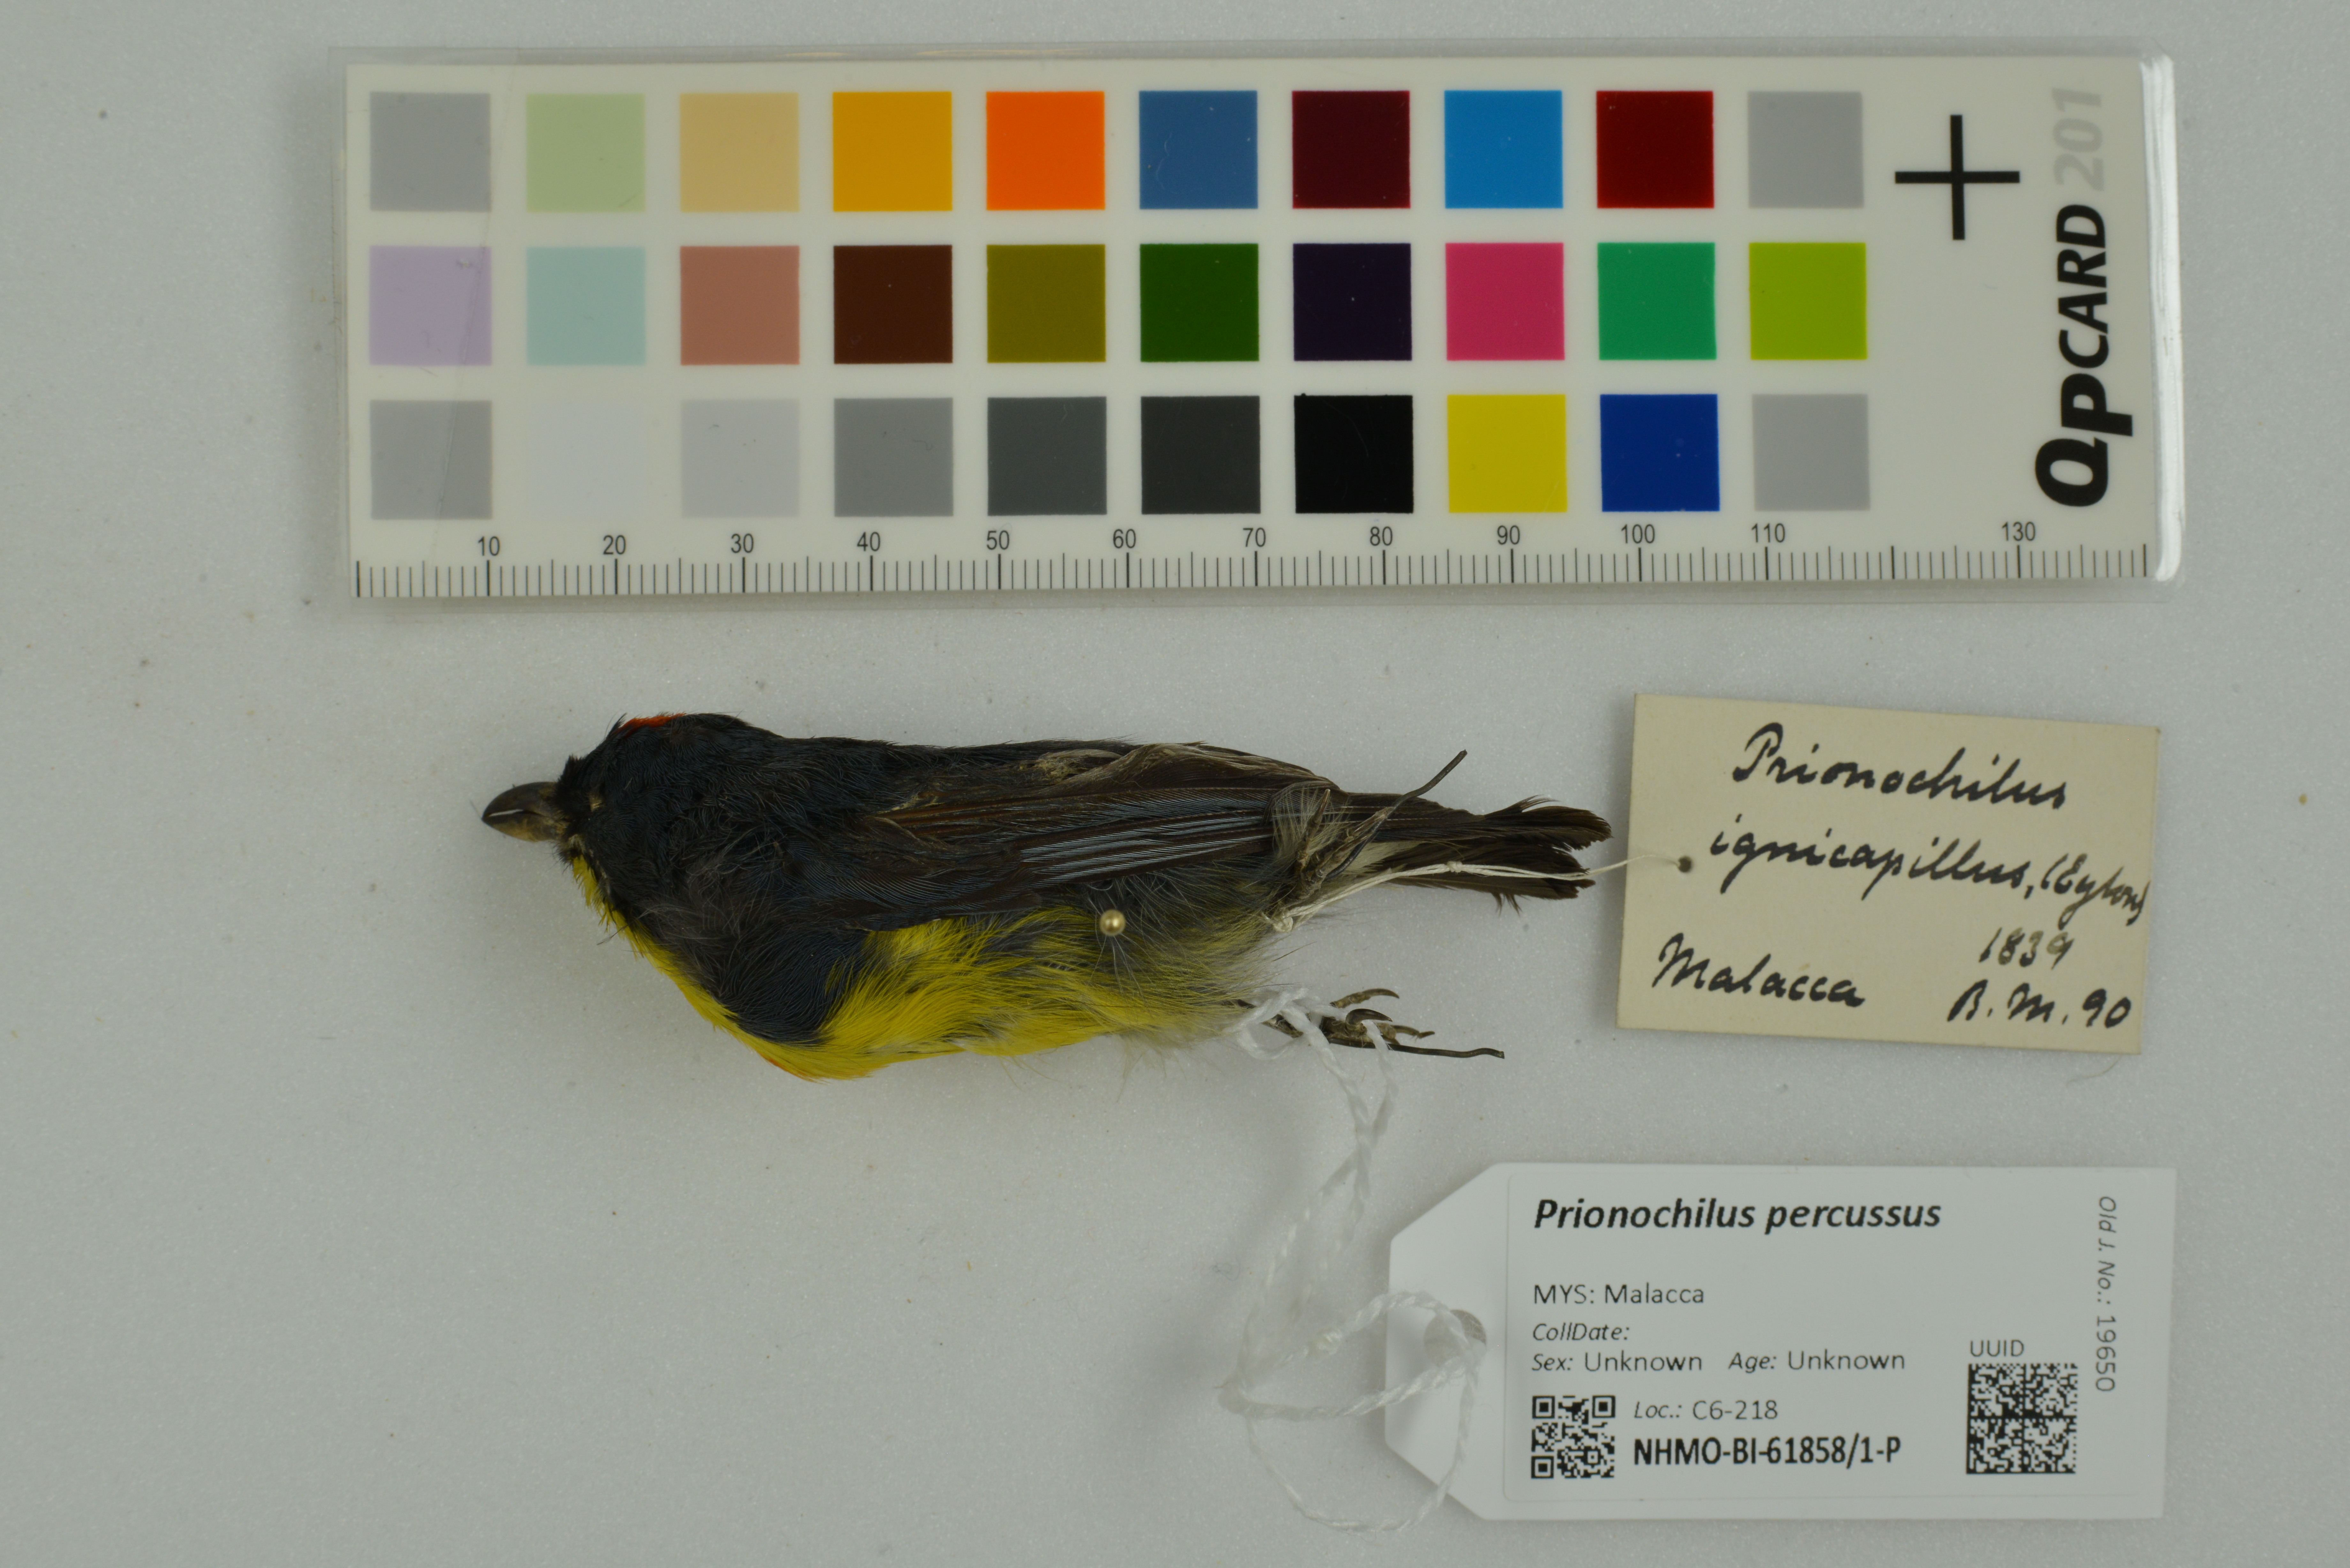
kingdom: Animalia
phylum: Chordata
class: Aves
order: Passeriformes
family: Dicaeidae
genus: Prionochilus
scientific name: Prionochilus percussus
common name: Crimson-breasted flowerpecker
